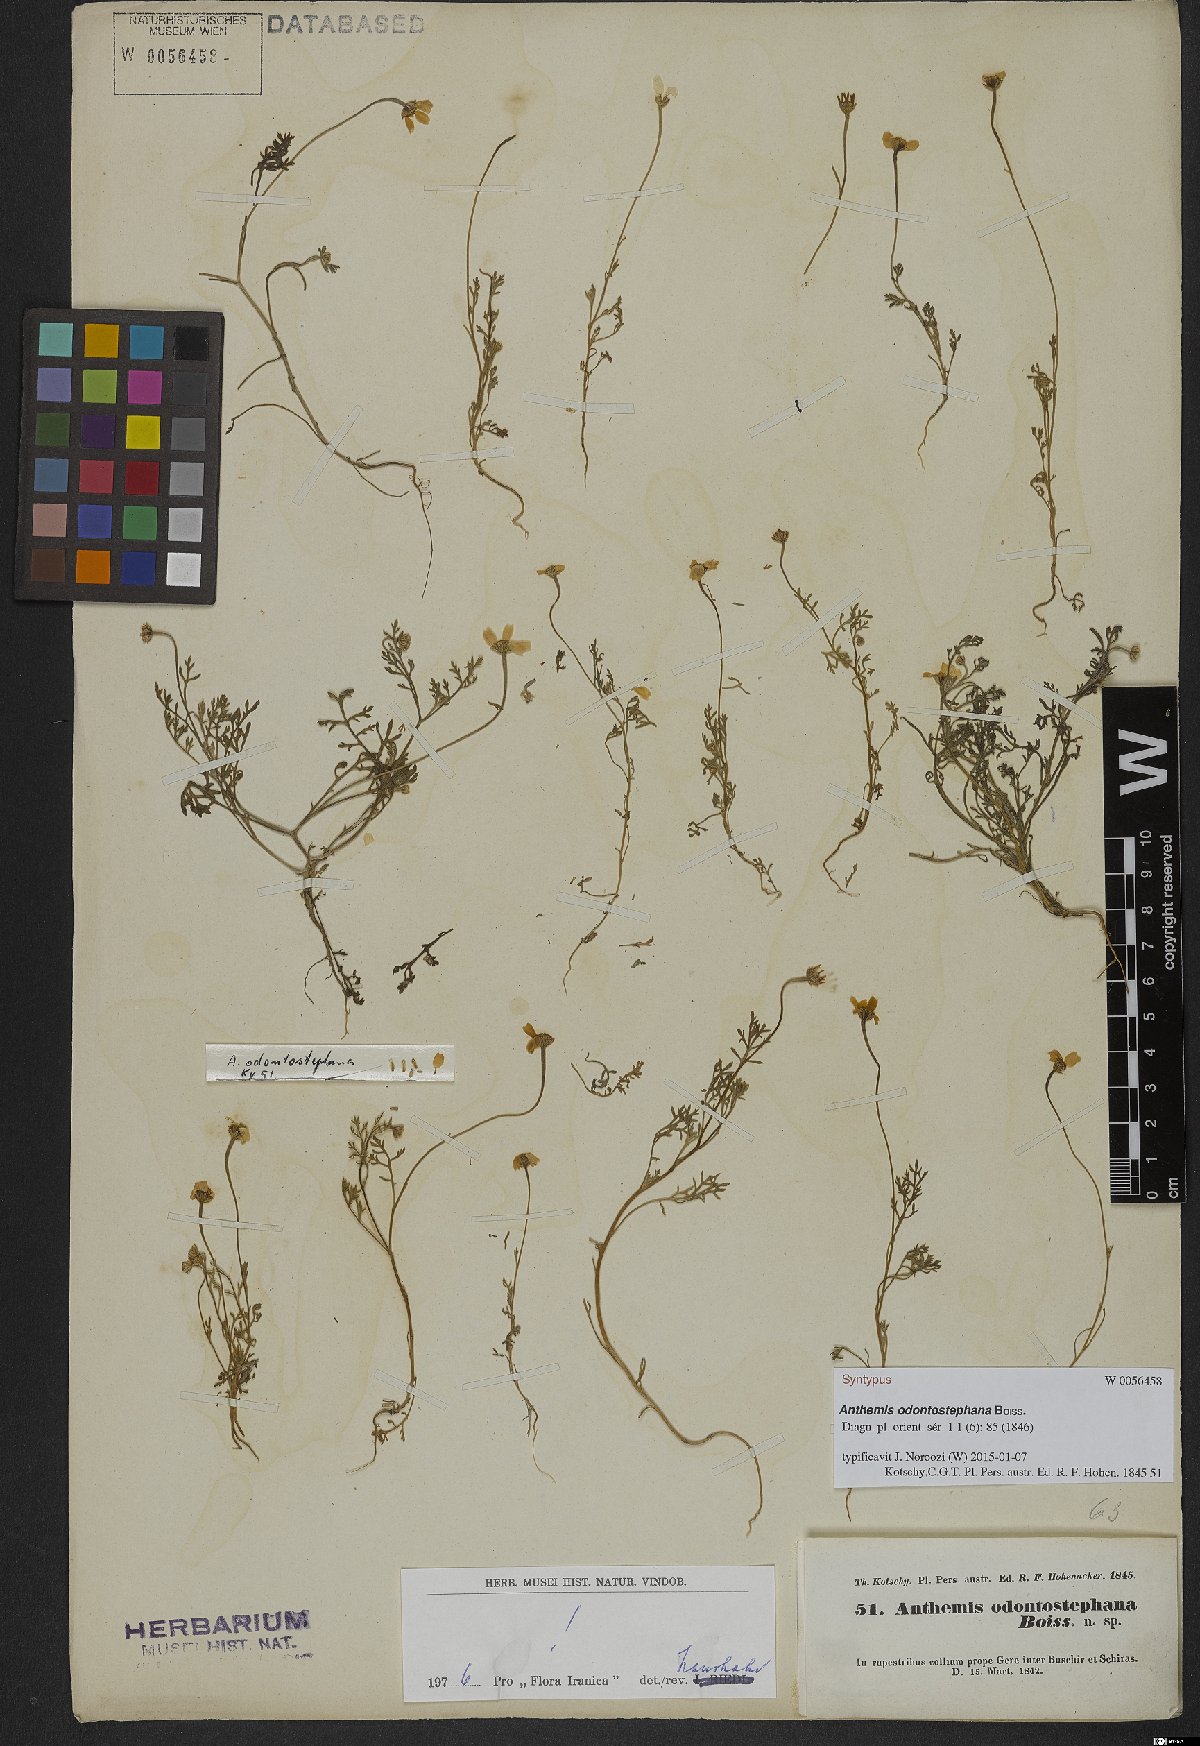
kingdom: Plantae
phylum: Tracheophyta
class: Magnoliopsida
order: Asterales
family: Asteraceae
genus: Anthemis
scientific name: Anthemis odontostephana
